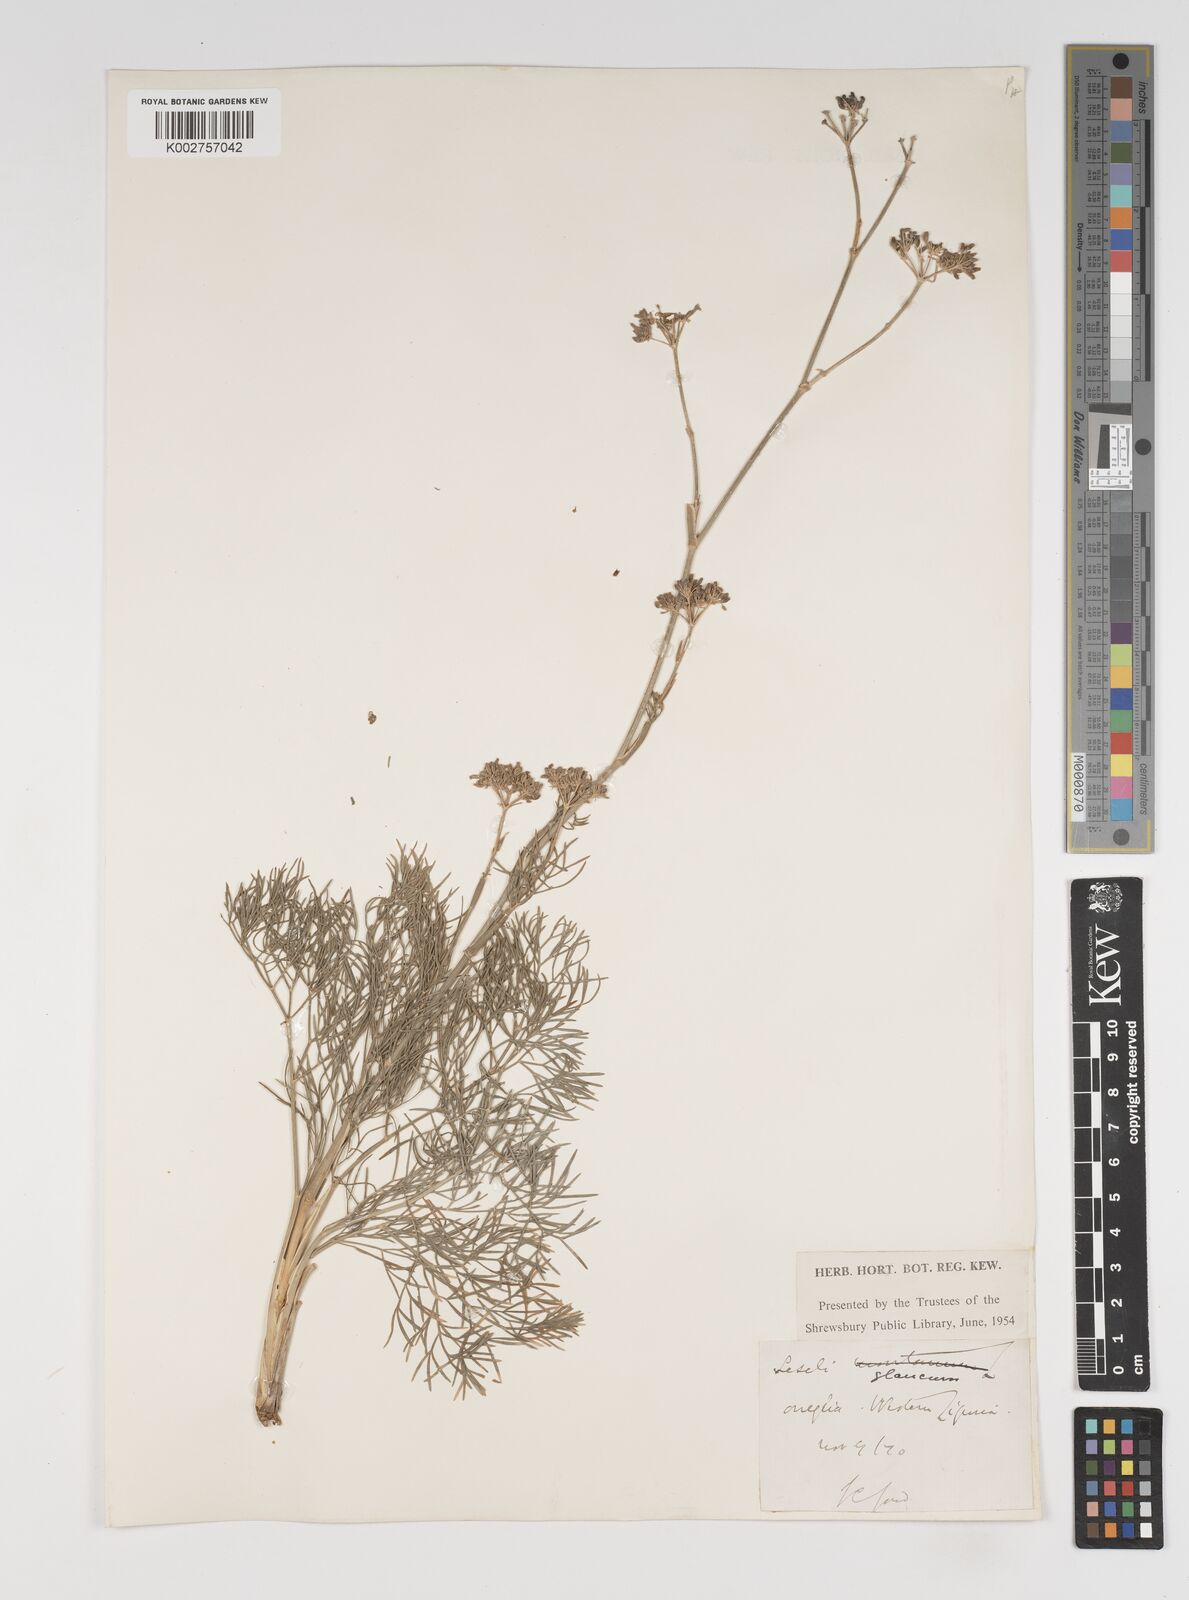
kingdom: Plantae
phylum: Tracheophyta
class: Magnoliopsida
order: Apiales
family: Apiaceae
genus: Seseli
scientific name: Seseli montanum
